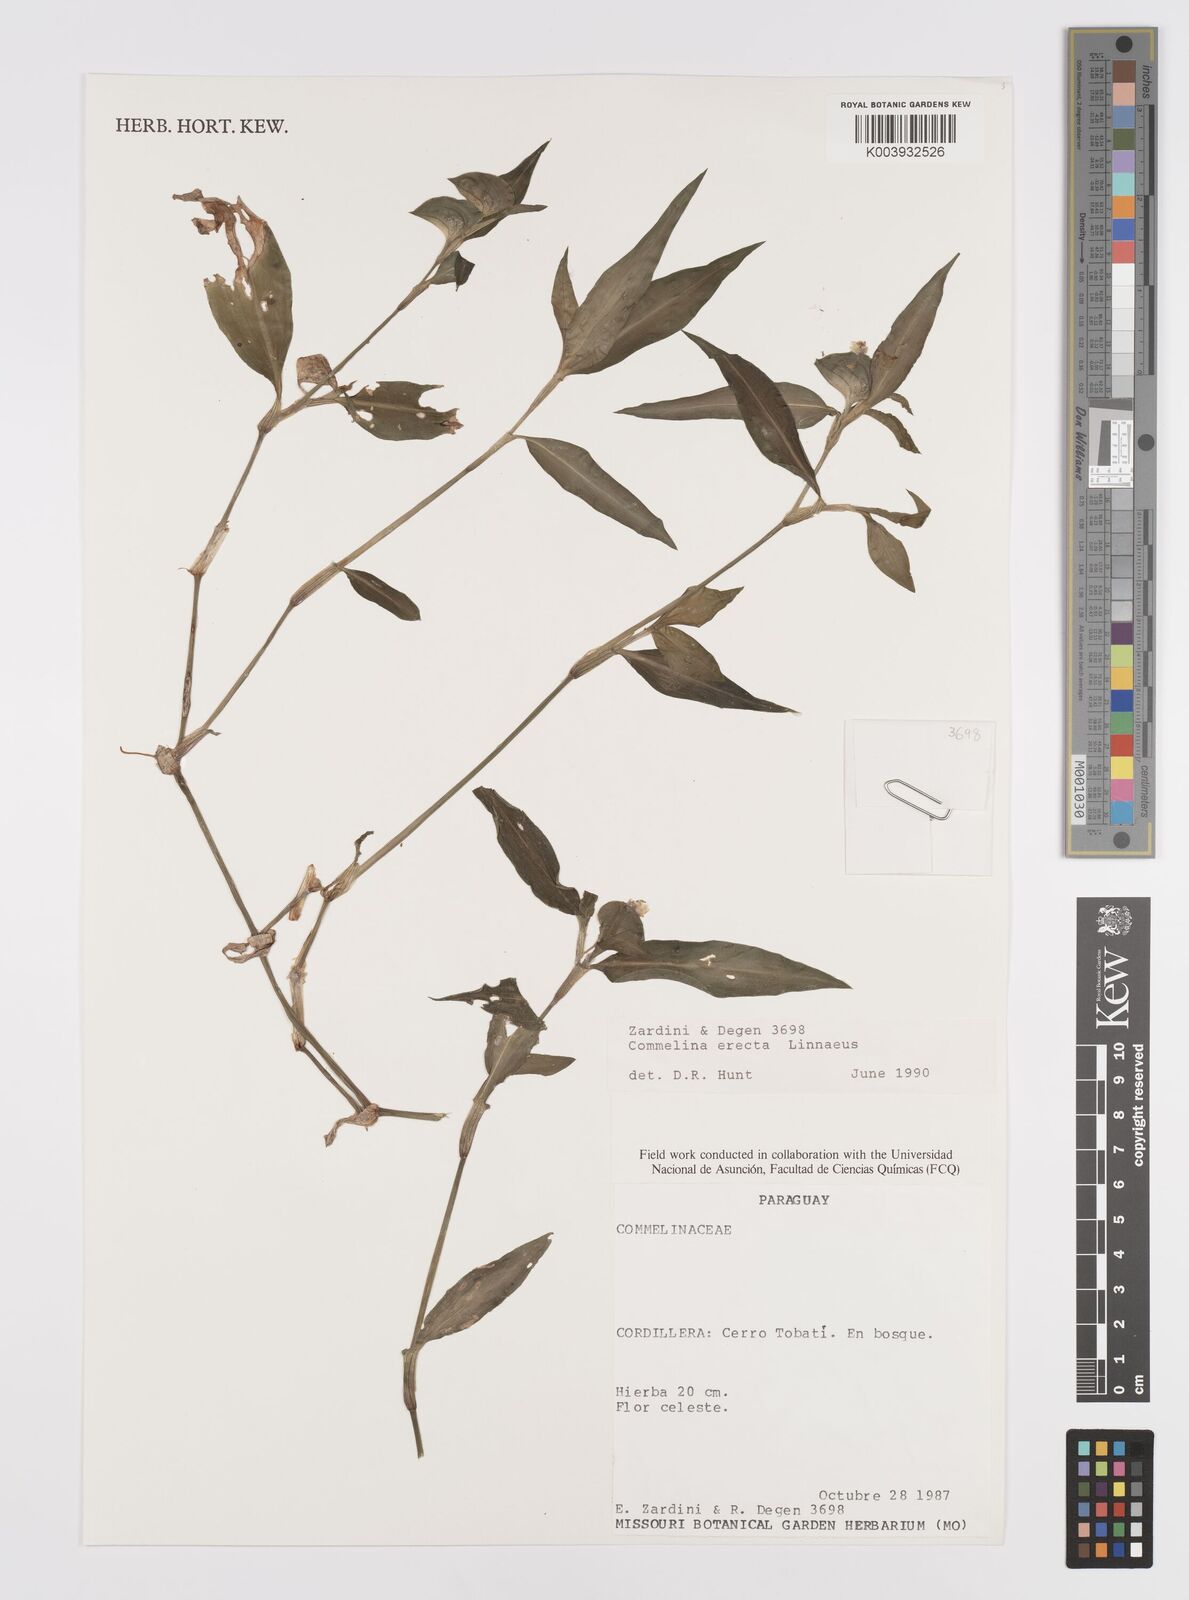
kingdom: Plantae
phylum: Tracheophyta
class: Liliopsida
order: Commelinales
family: Commelinaceae
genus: Commelina
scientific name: Commelina erecta
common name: Blousel blommetjie
